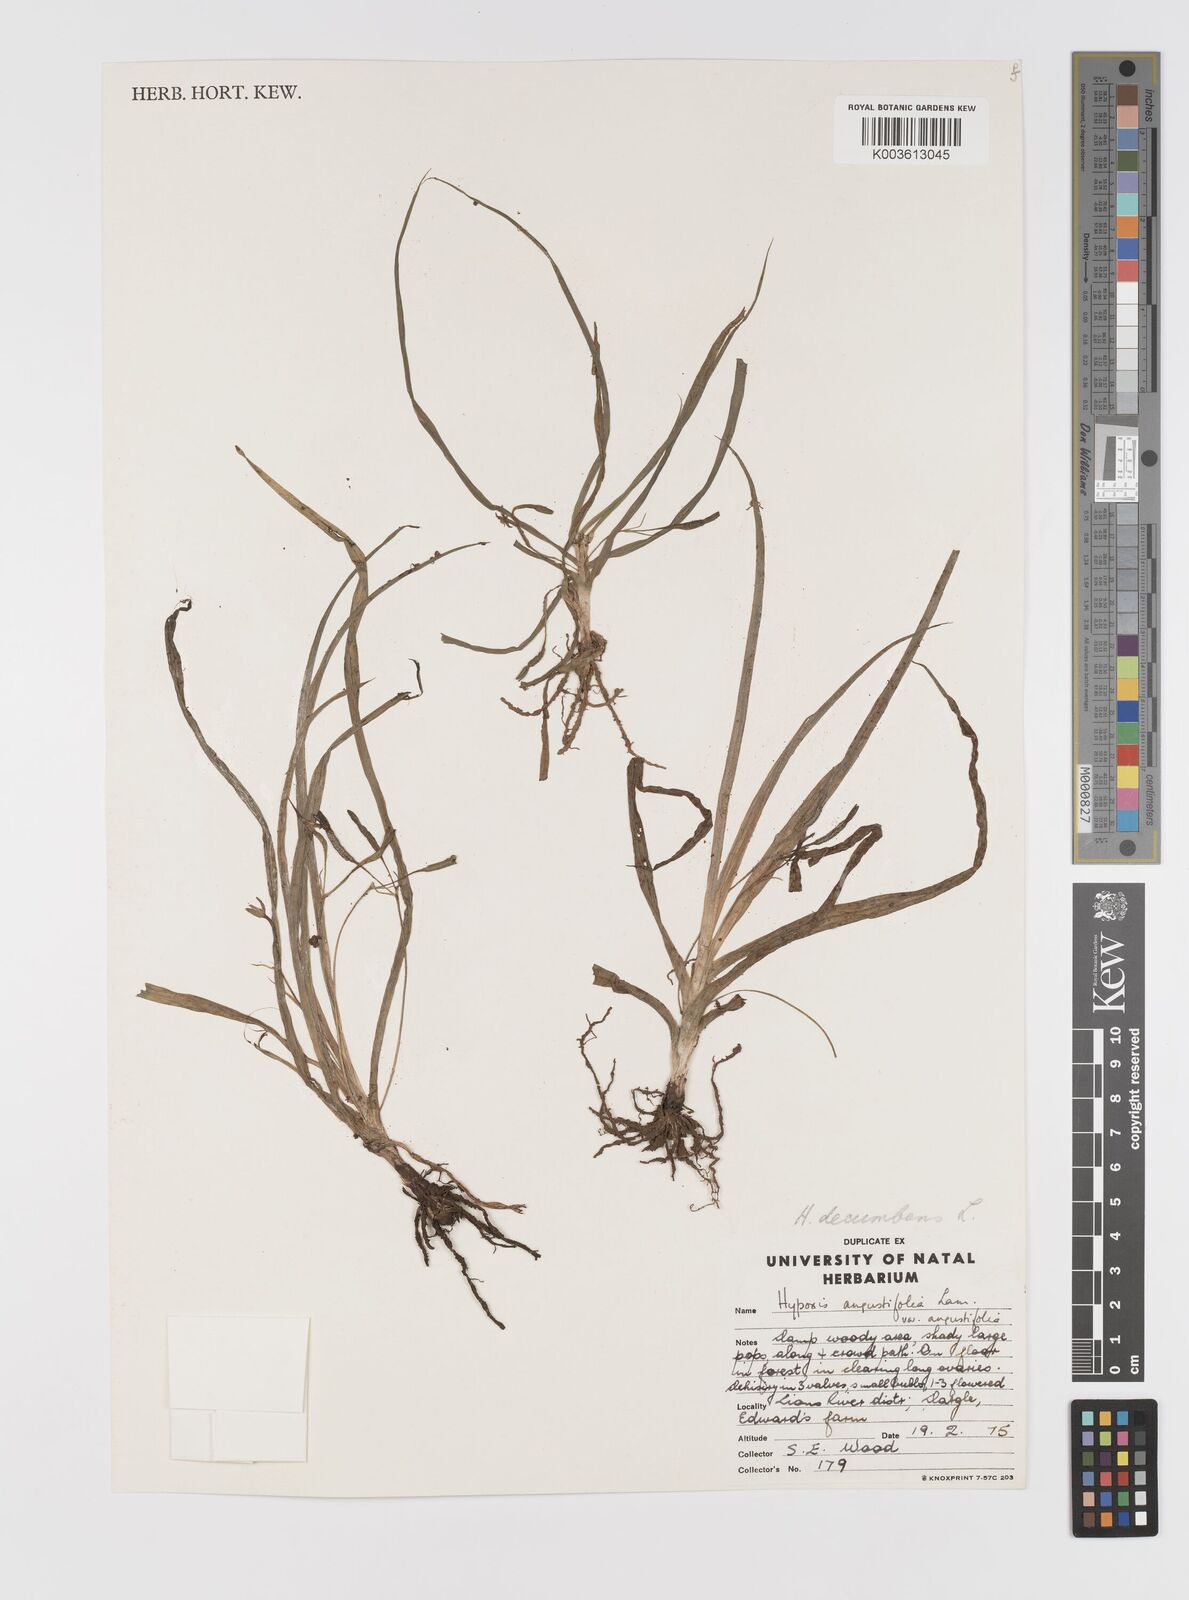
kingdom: Plantae
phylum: Tracheophyta
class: Liliopsida
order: Asparagales
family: Hypoxidaceae
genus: Hypoxis
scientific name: Hypoxis decumbens
